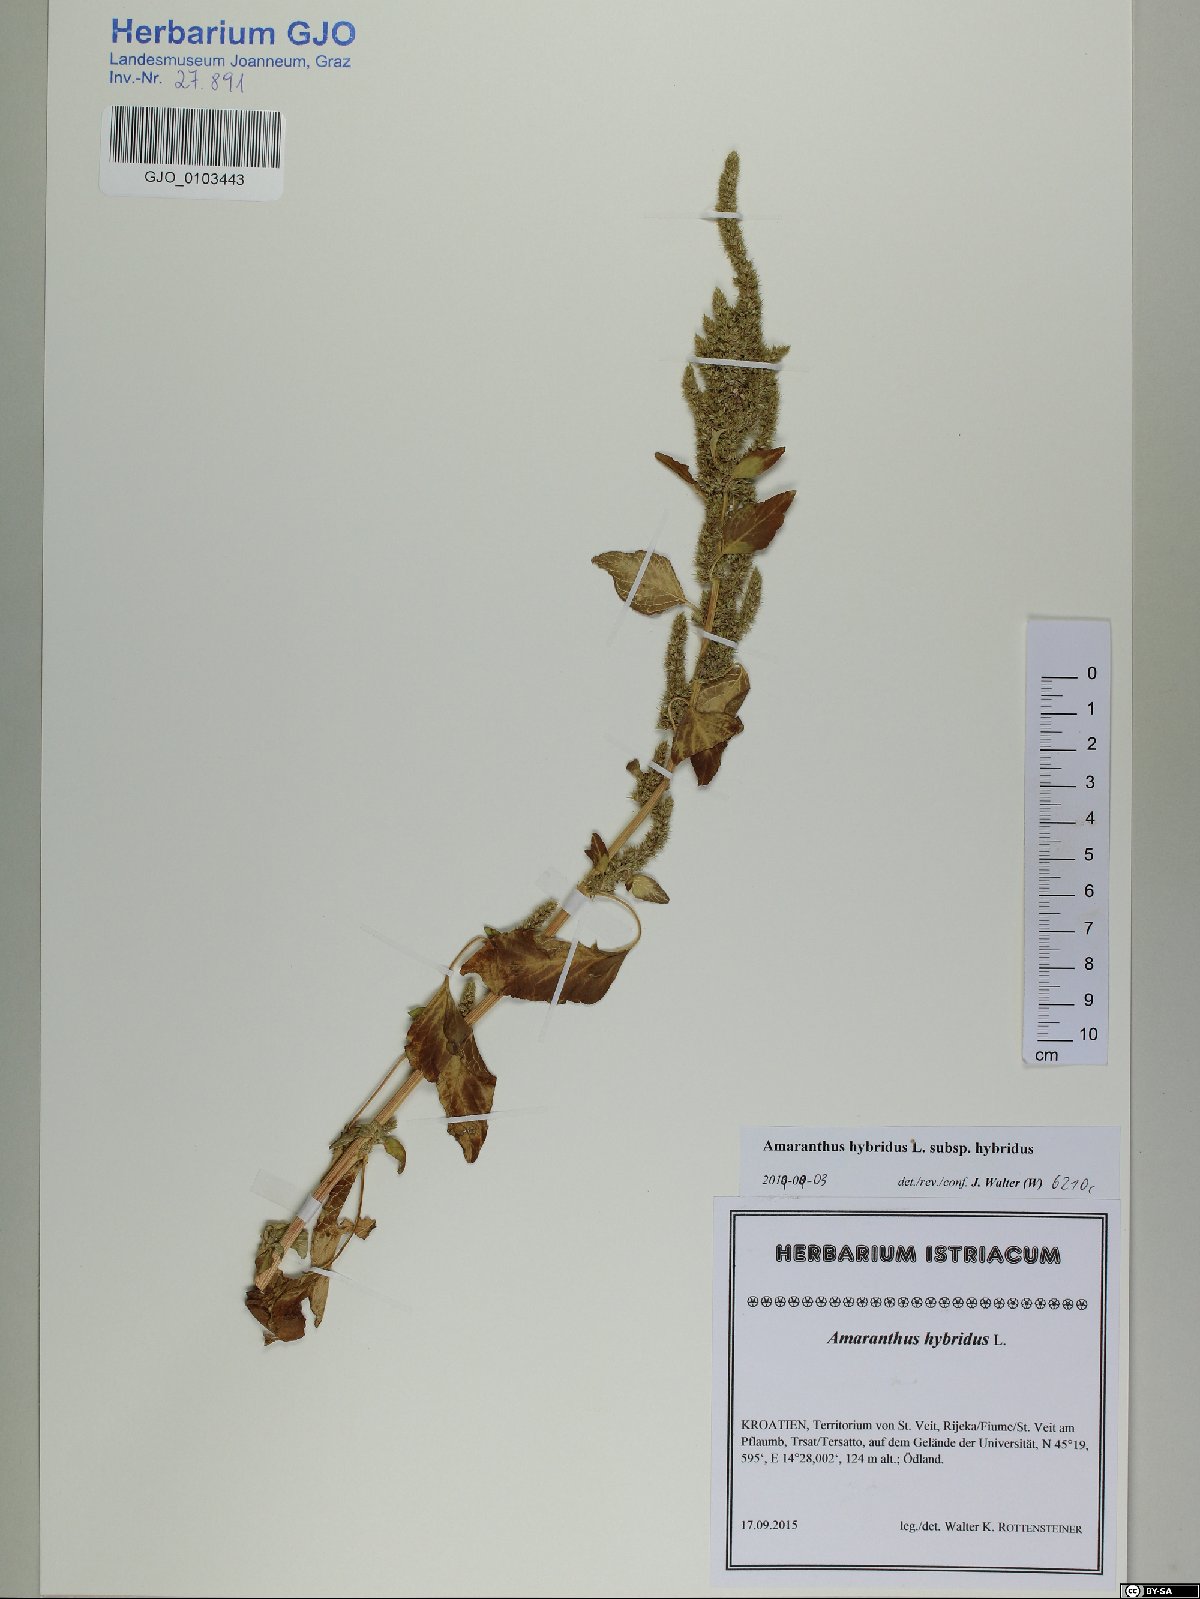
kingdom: Plantae
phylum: Tracheophyta
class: Magnoliopsida
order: Caryophyllales
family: Amaranthaceae
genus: Amaranthus
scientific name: Amaranthus hybridus
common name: Green amaranth
